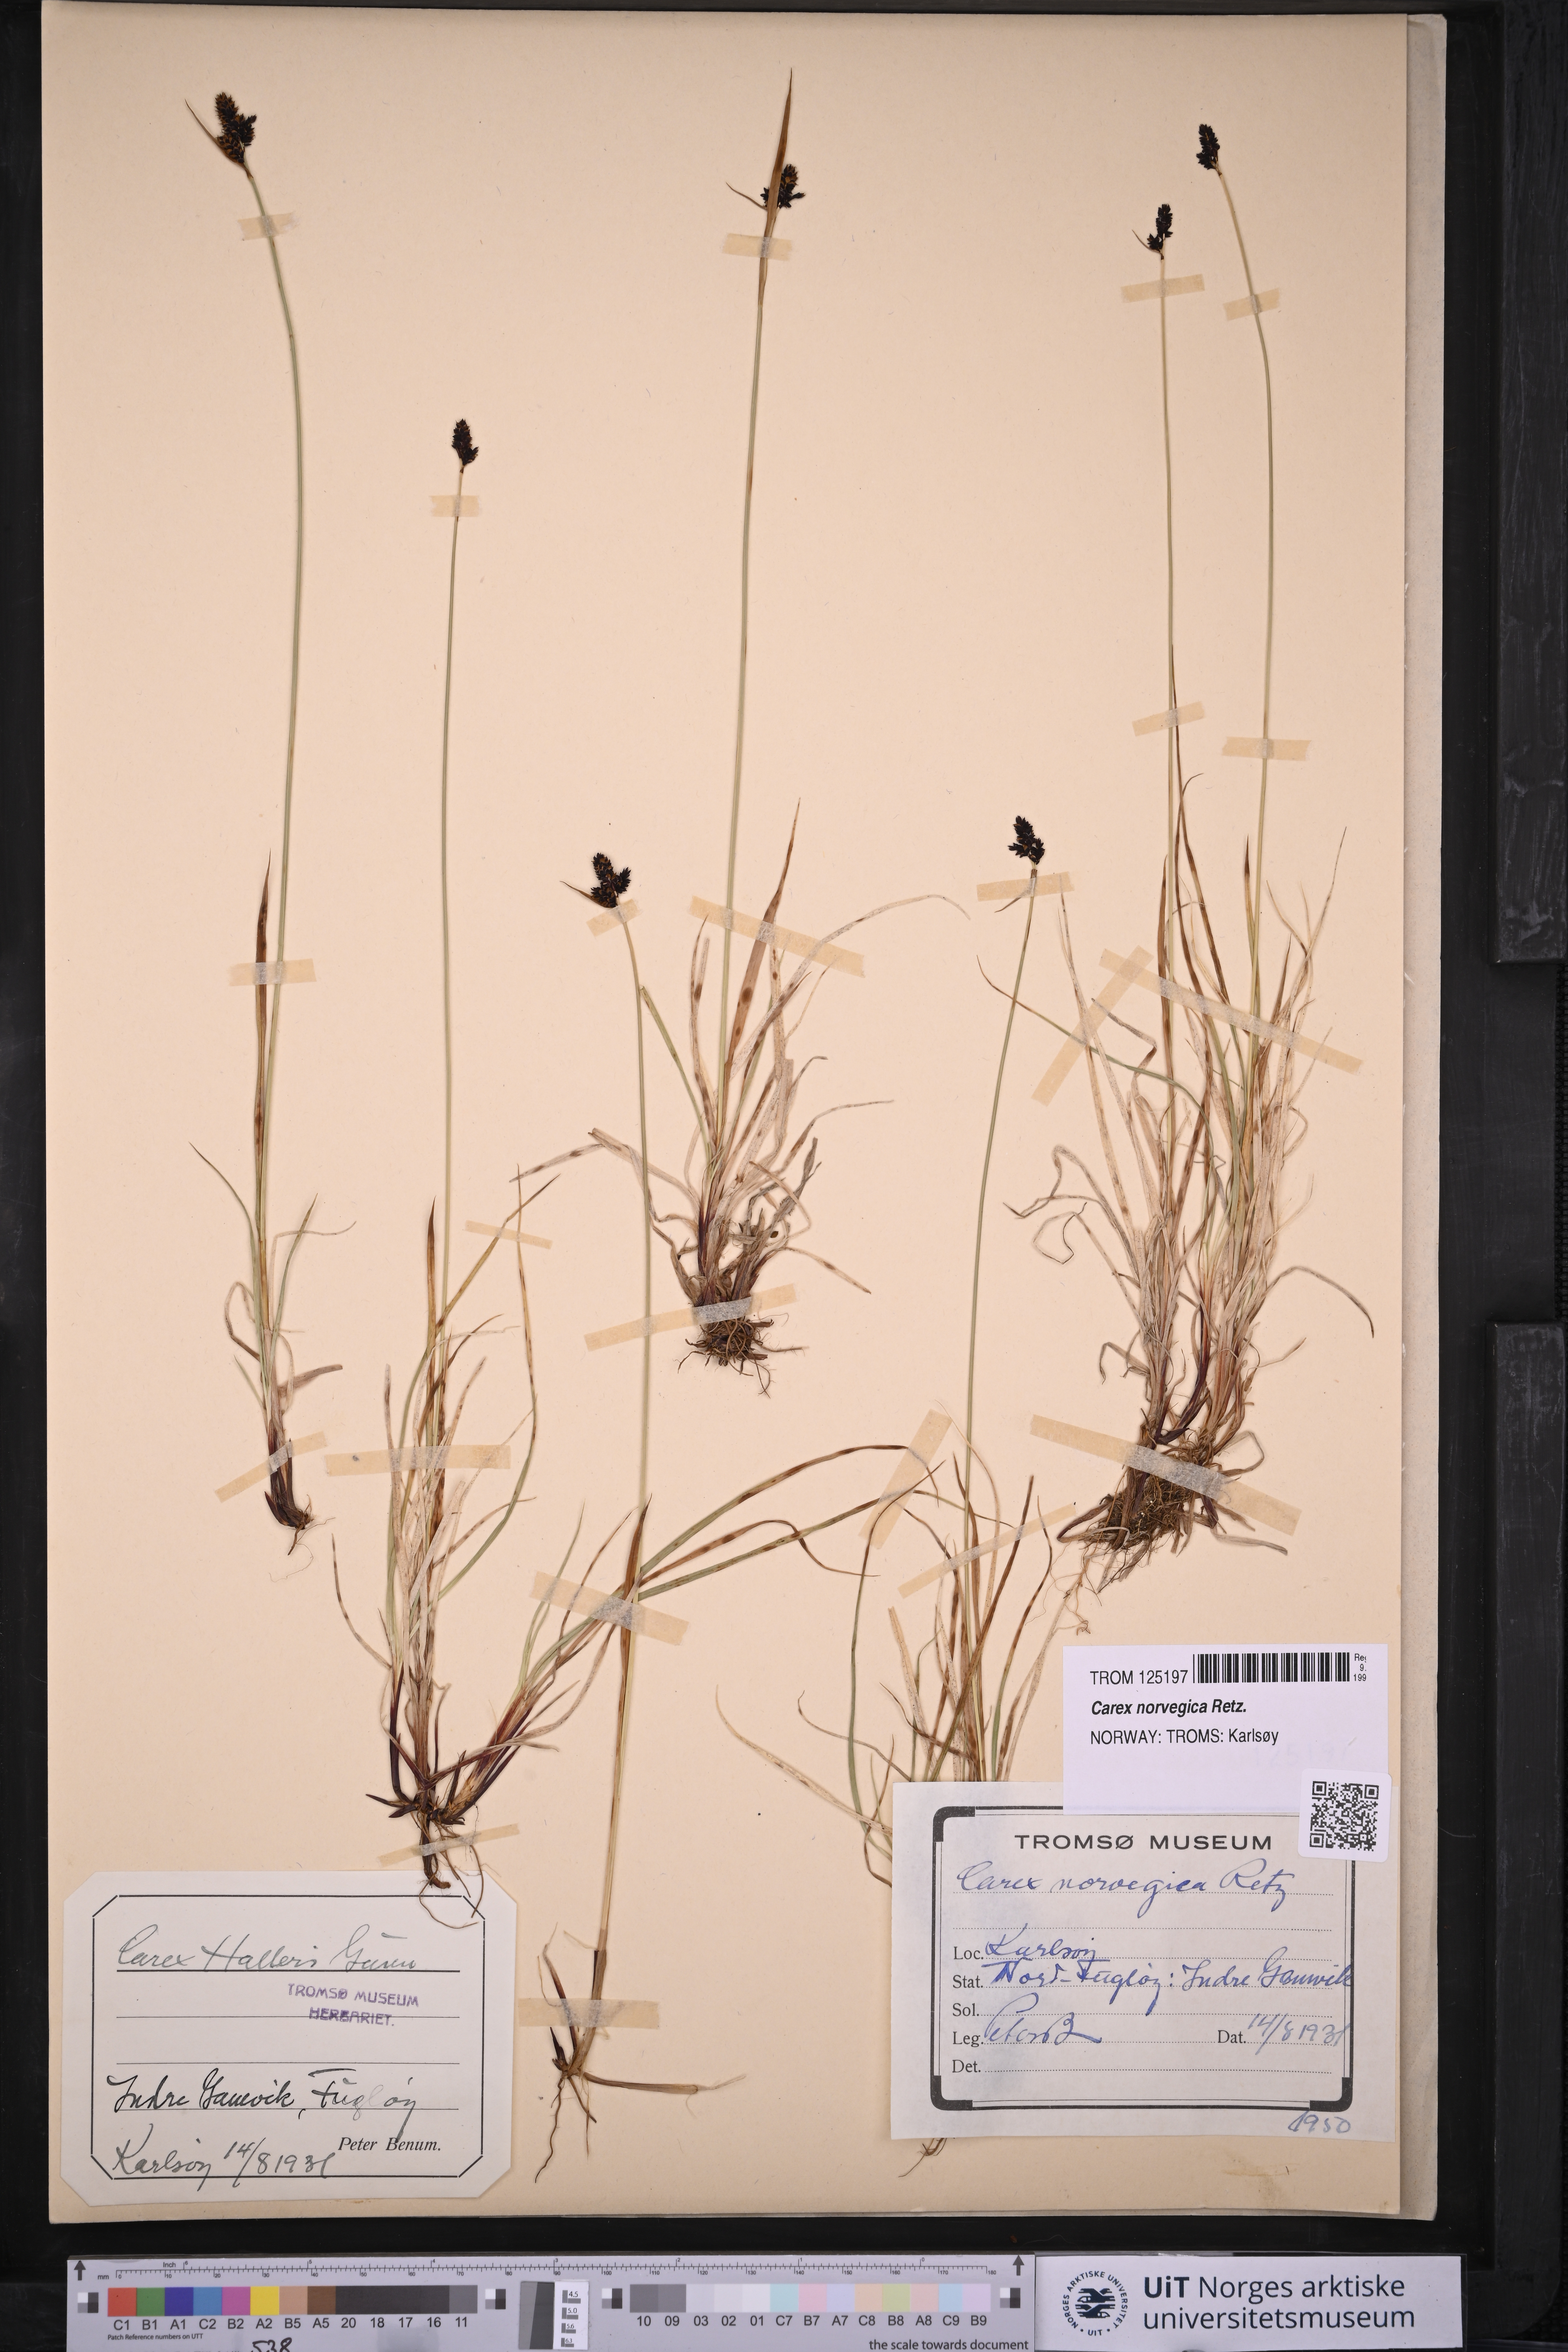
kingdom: Plantae
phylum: Tracheophyta
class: Liliopsida
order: Poales
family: Cyperaceae
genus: Carex
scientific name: Carex norvegica
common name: Close-headed alpine-sedge
